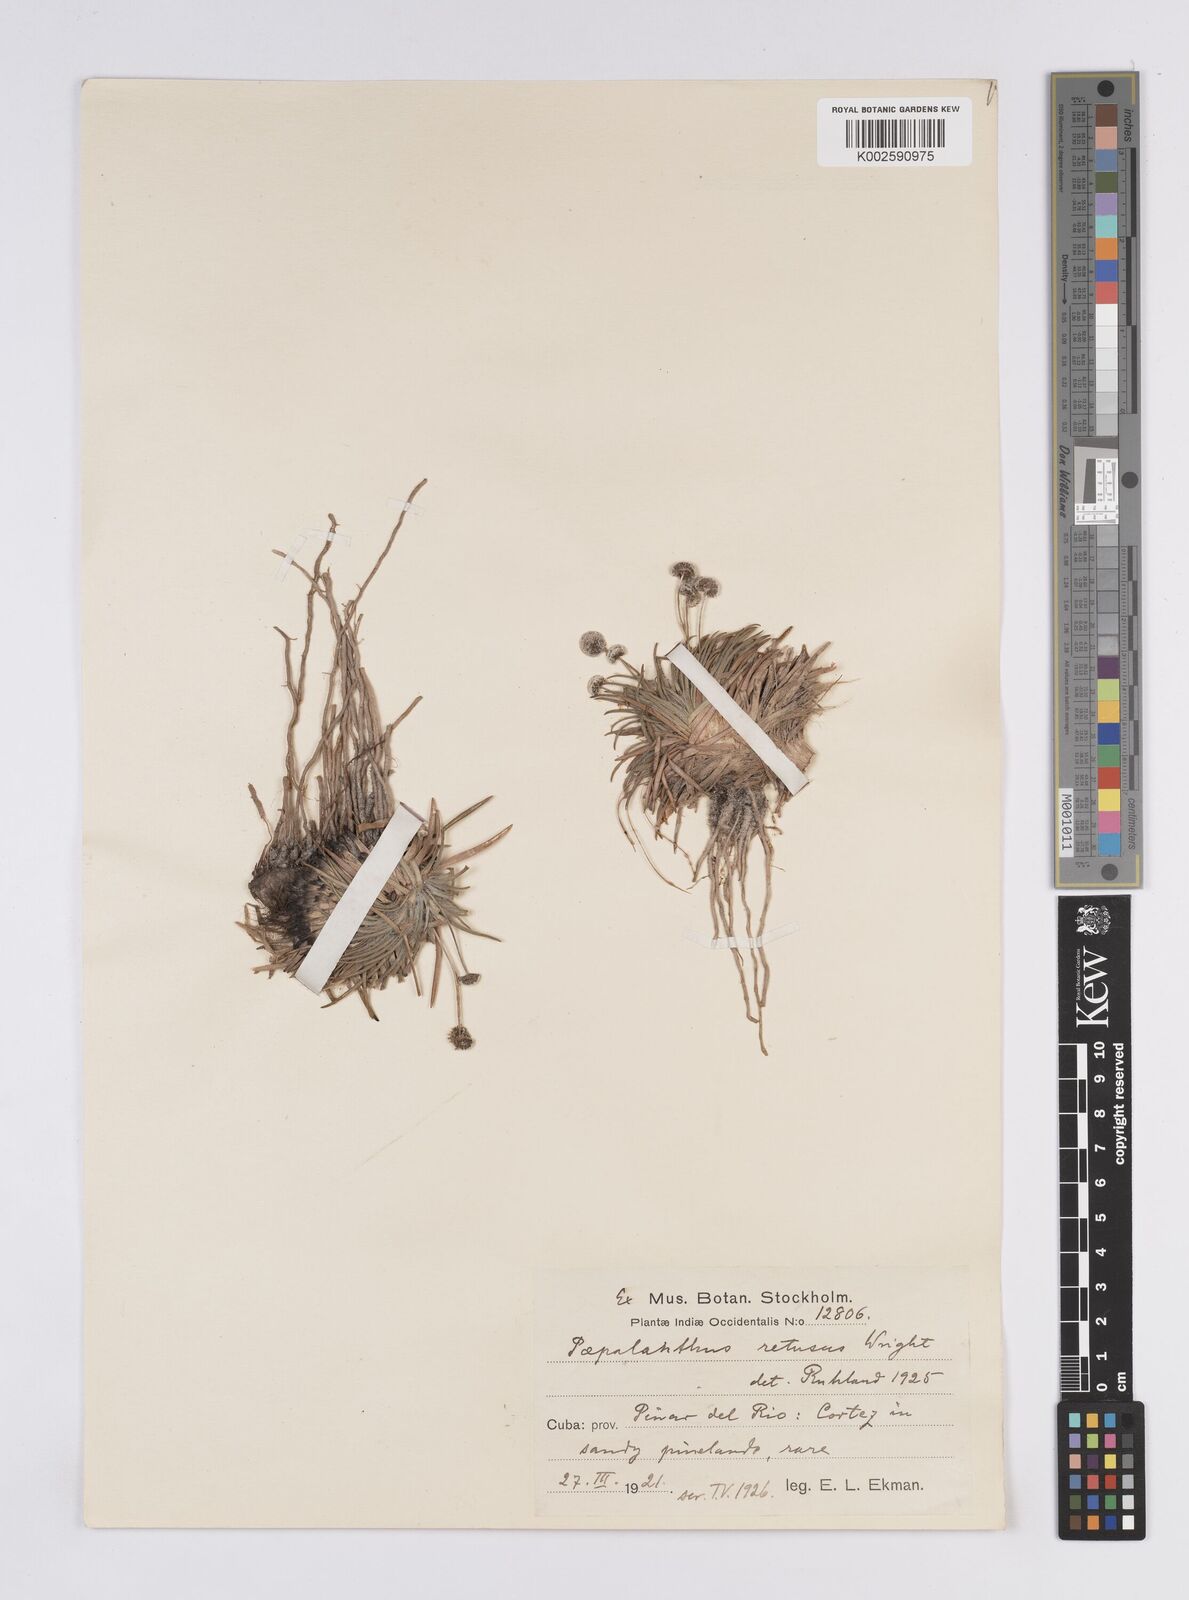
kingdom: Plantae
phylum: Tracheophyta
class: Liliopsida
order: Poales
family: Eriocaulaceae
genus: Paepalanthus
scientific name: Paepalanthus retusus
